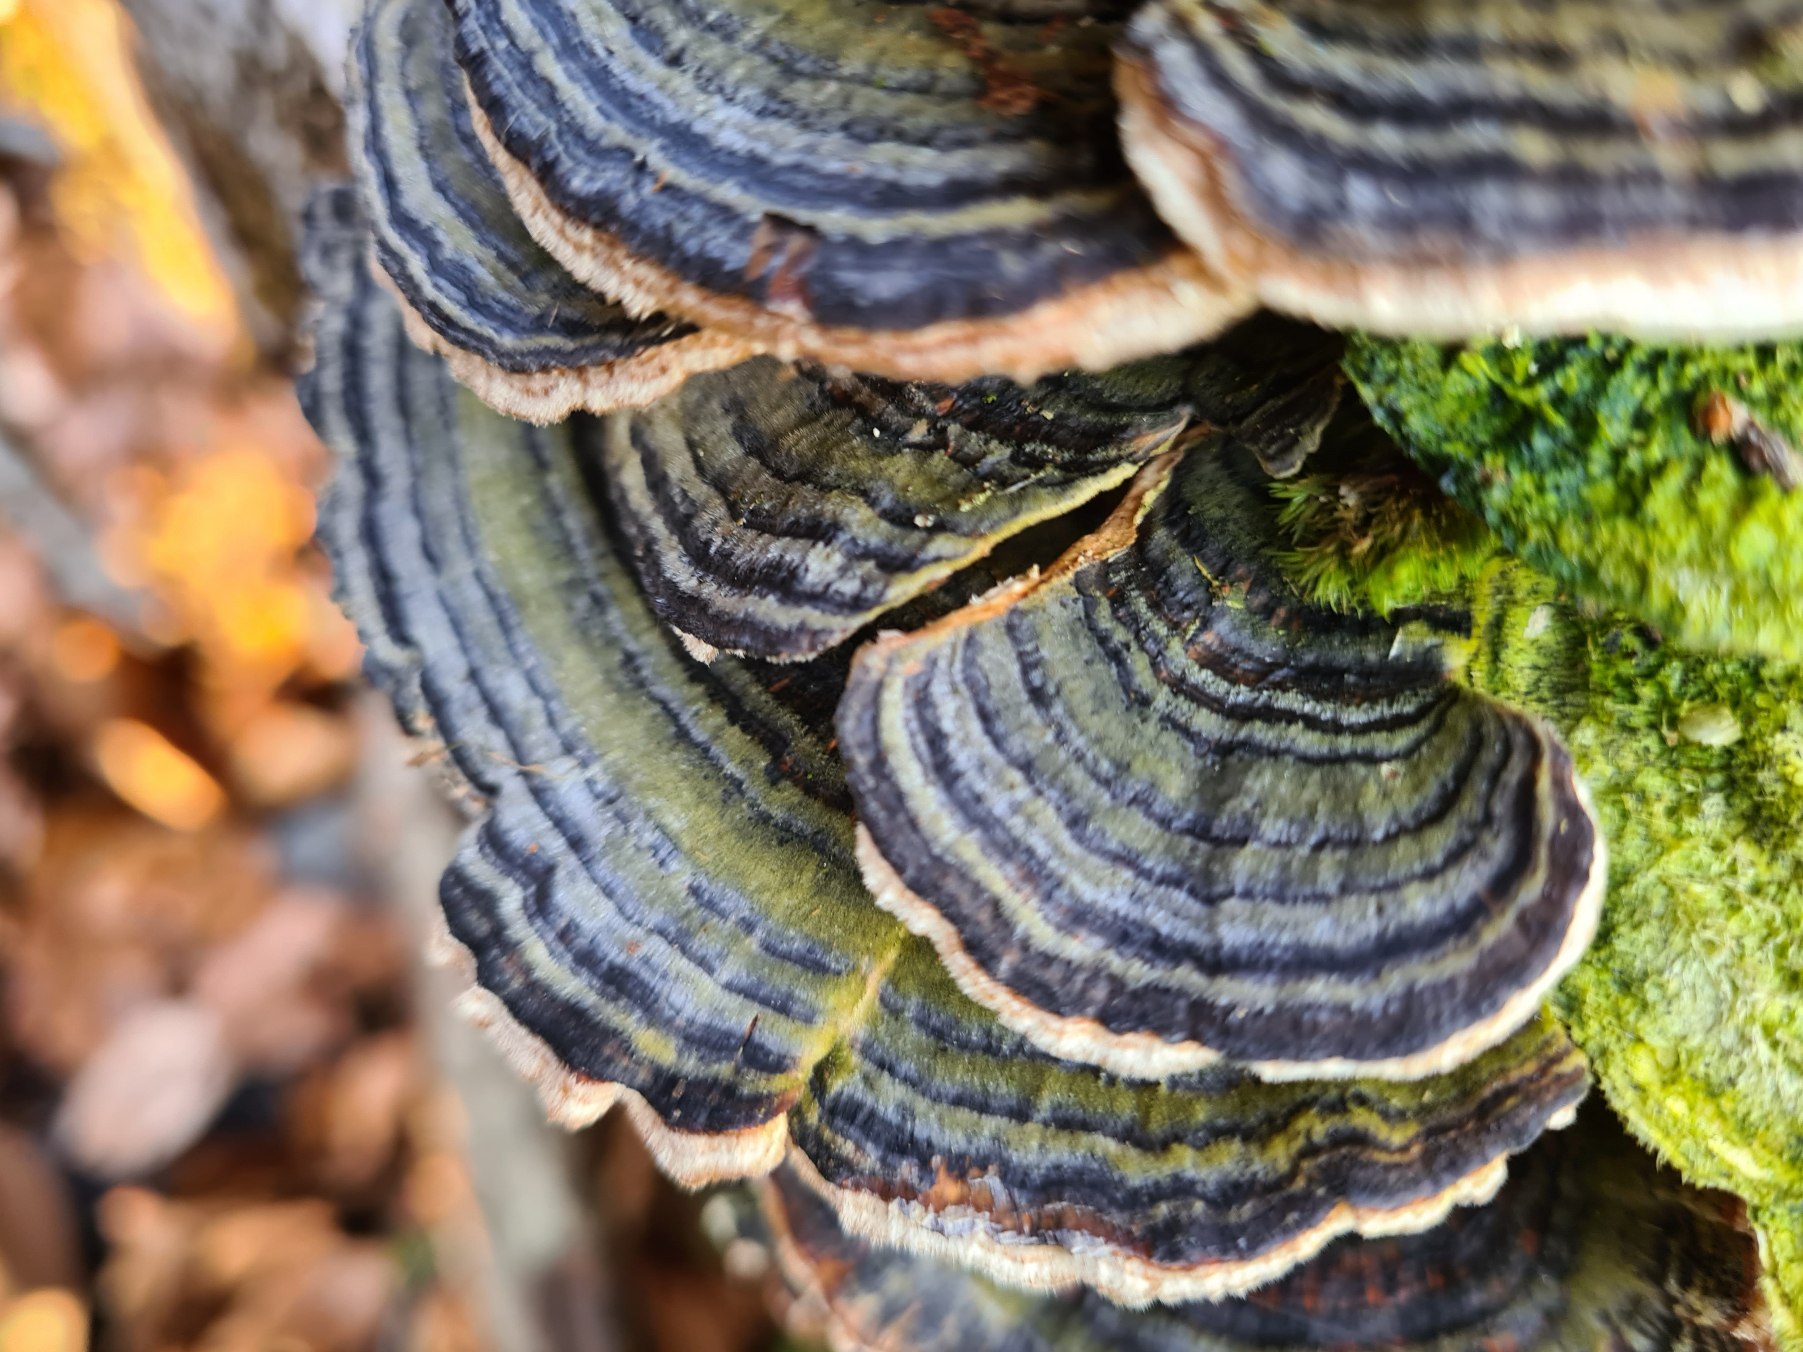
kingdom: Fungi
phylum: Basidiomycota
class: Agaricomycetes
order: Polyporales
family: Polyporaceae
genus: Trametes
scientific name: Trametes versicolor
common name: Broget læderporesvamp
